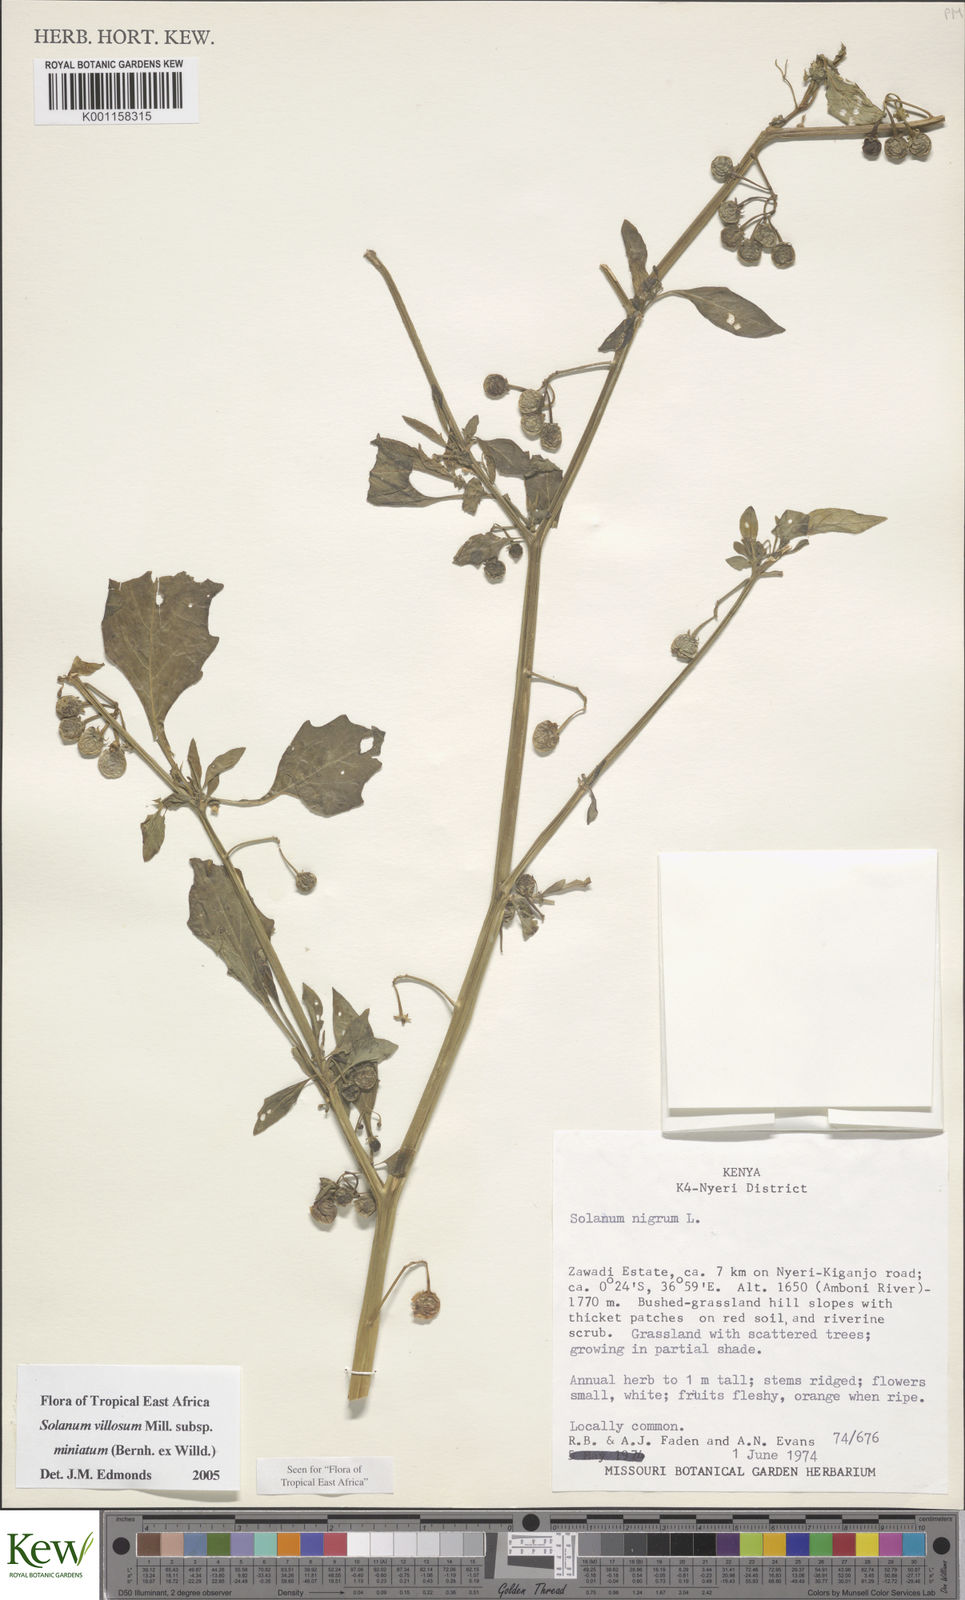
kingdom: Plantae
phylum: Tracheophyta
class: Magnoliopsida
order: Solanales
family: Solanaceae
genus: Solanum
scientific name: Solanum villosum
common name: Red nightshade
